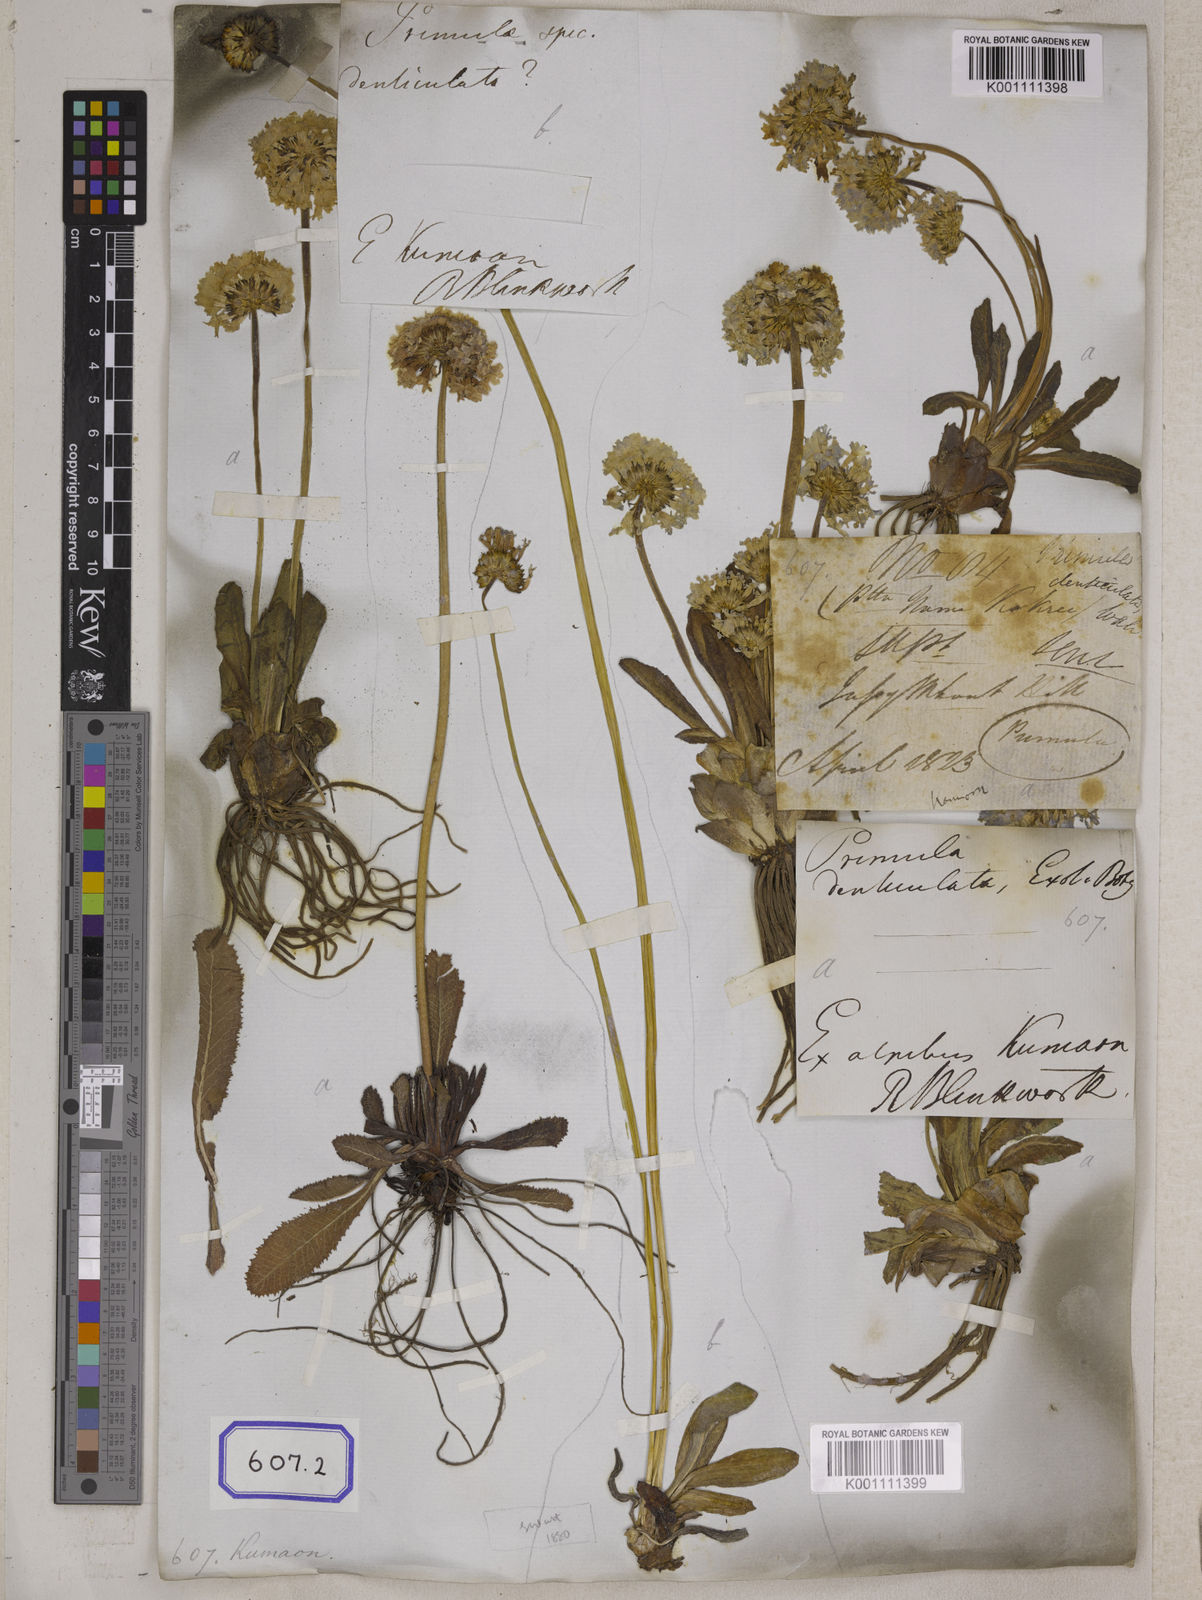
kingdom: Plantae
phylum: Tracheophyta
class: Magnoliopsida
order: Ericales
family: Primulaceae
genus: Primula
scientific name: Primula denticulata
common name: Drumstick primula
